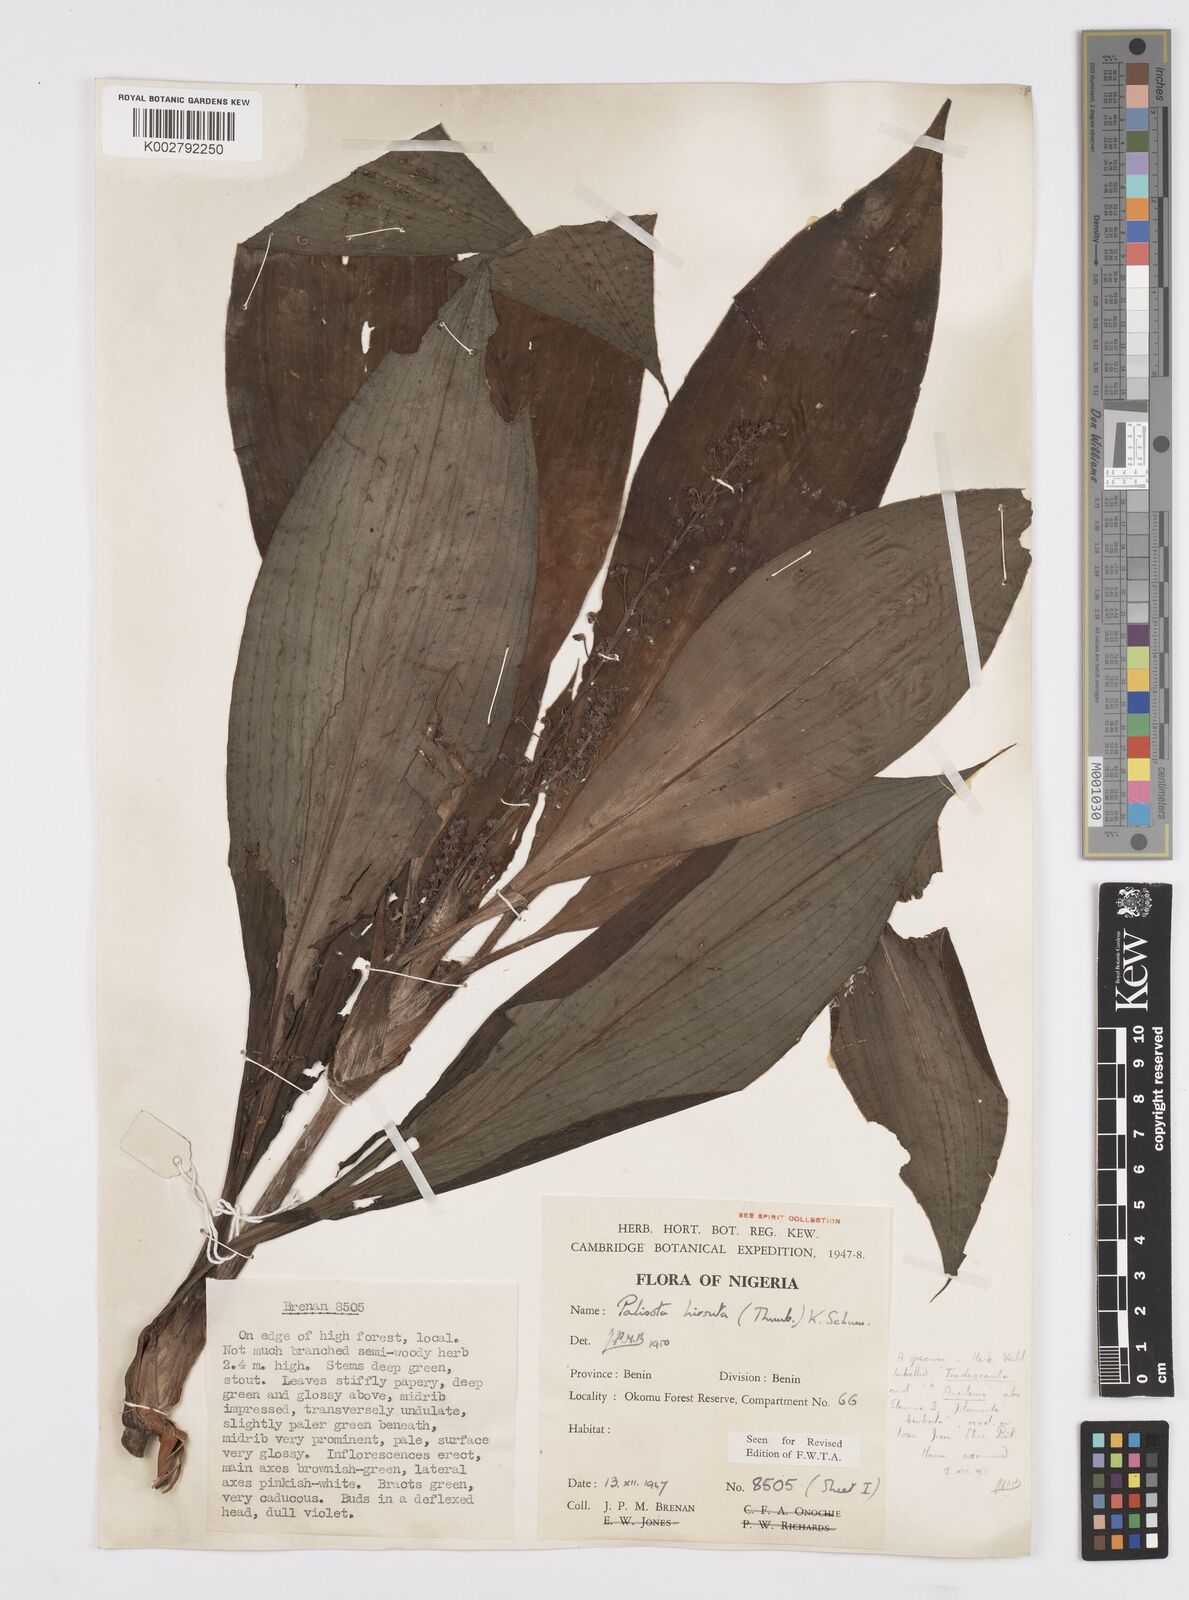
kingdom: Plantae
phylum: Tracheophyta
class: Liliopsida
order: Commelinales
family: Commelinaceae
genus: Palisota
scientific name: Palisota hirsuta
